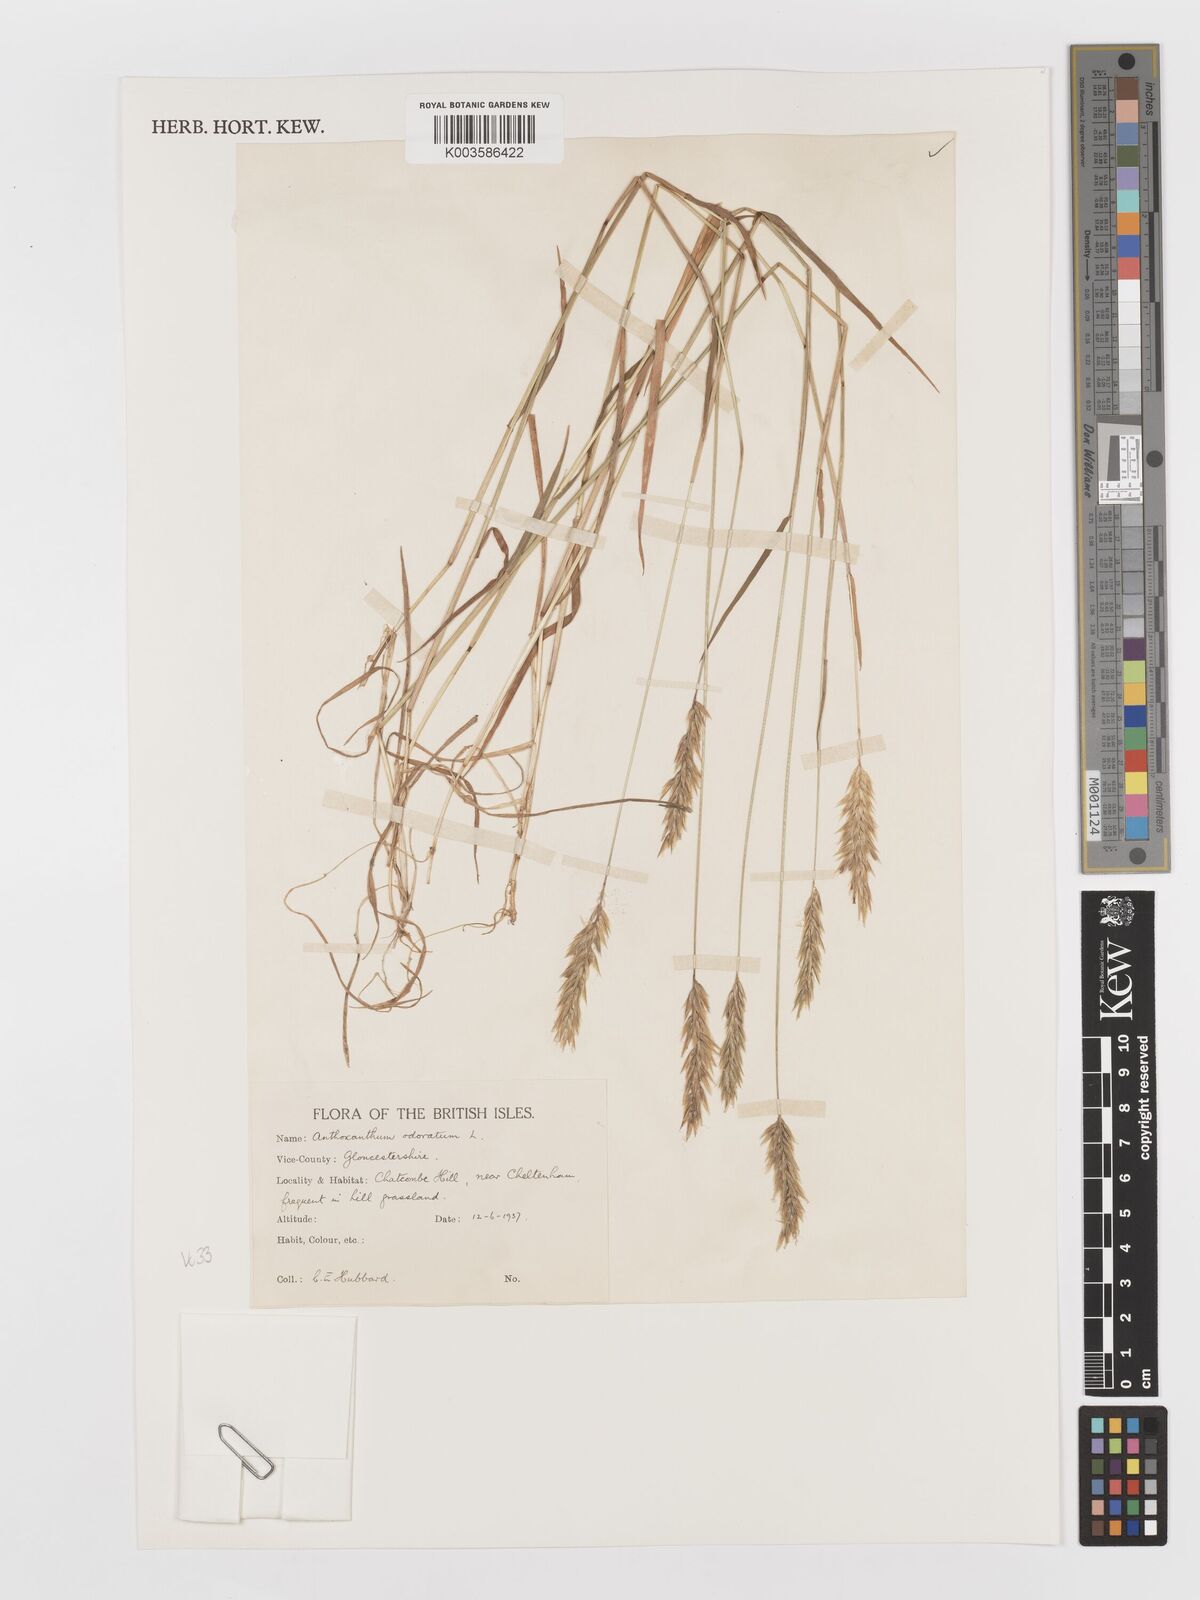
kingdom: Plantae
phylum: Tracheophyta
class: Liliopsida
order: Poales
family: Poaceae
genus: Anthoxanthum
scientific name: Anthoxanthum odoratum
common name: Sweet vernalgrass
